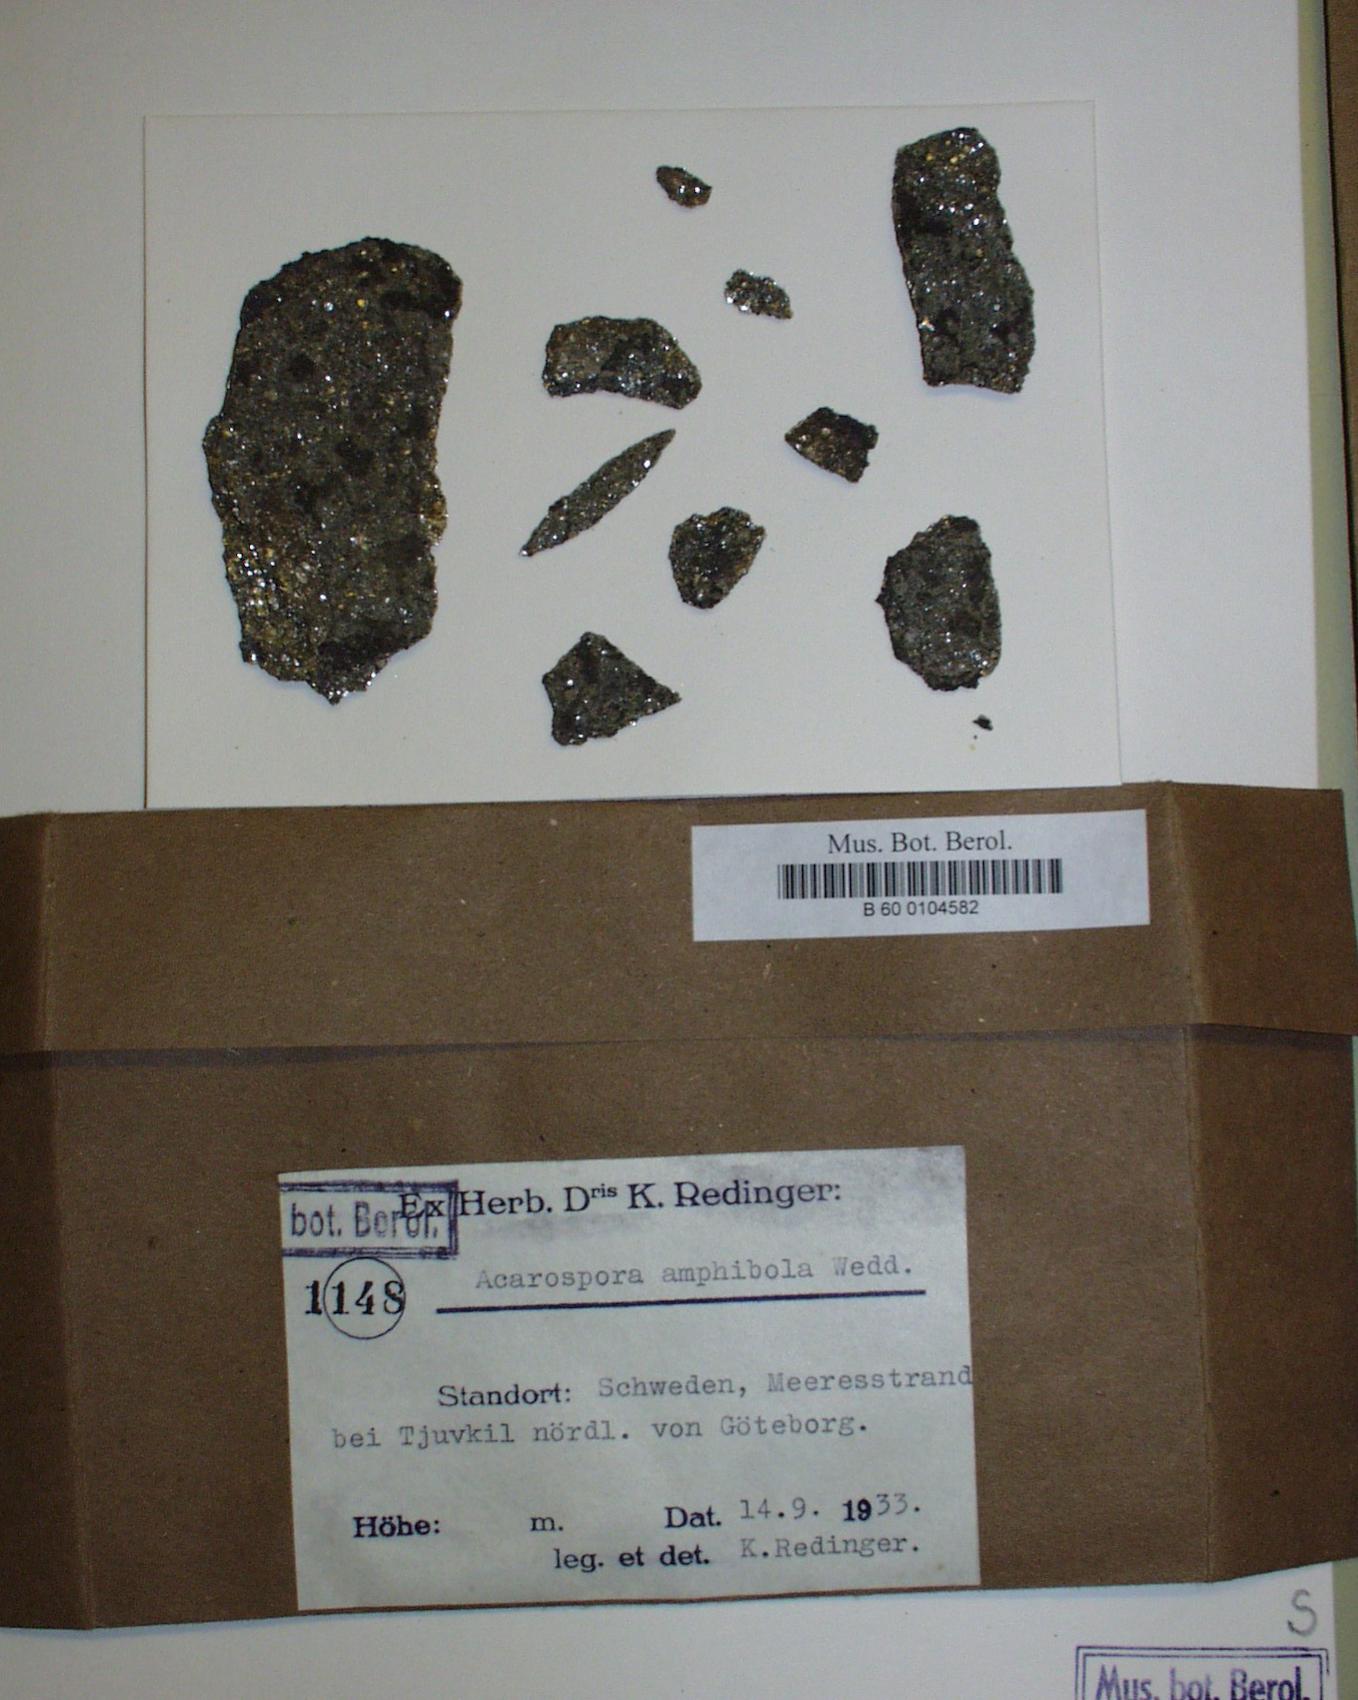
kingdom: Fungi
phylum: Ascomycota
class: Lecanoromycetes
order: Acarosporales
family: Acarosporaceae
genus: Myriospora
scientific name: Myriospora smaragdula
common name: Little emerald lichen
